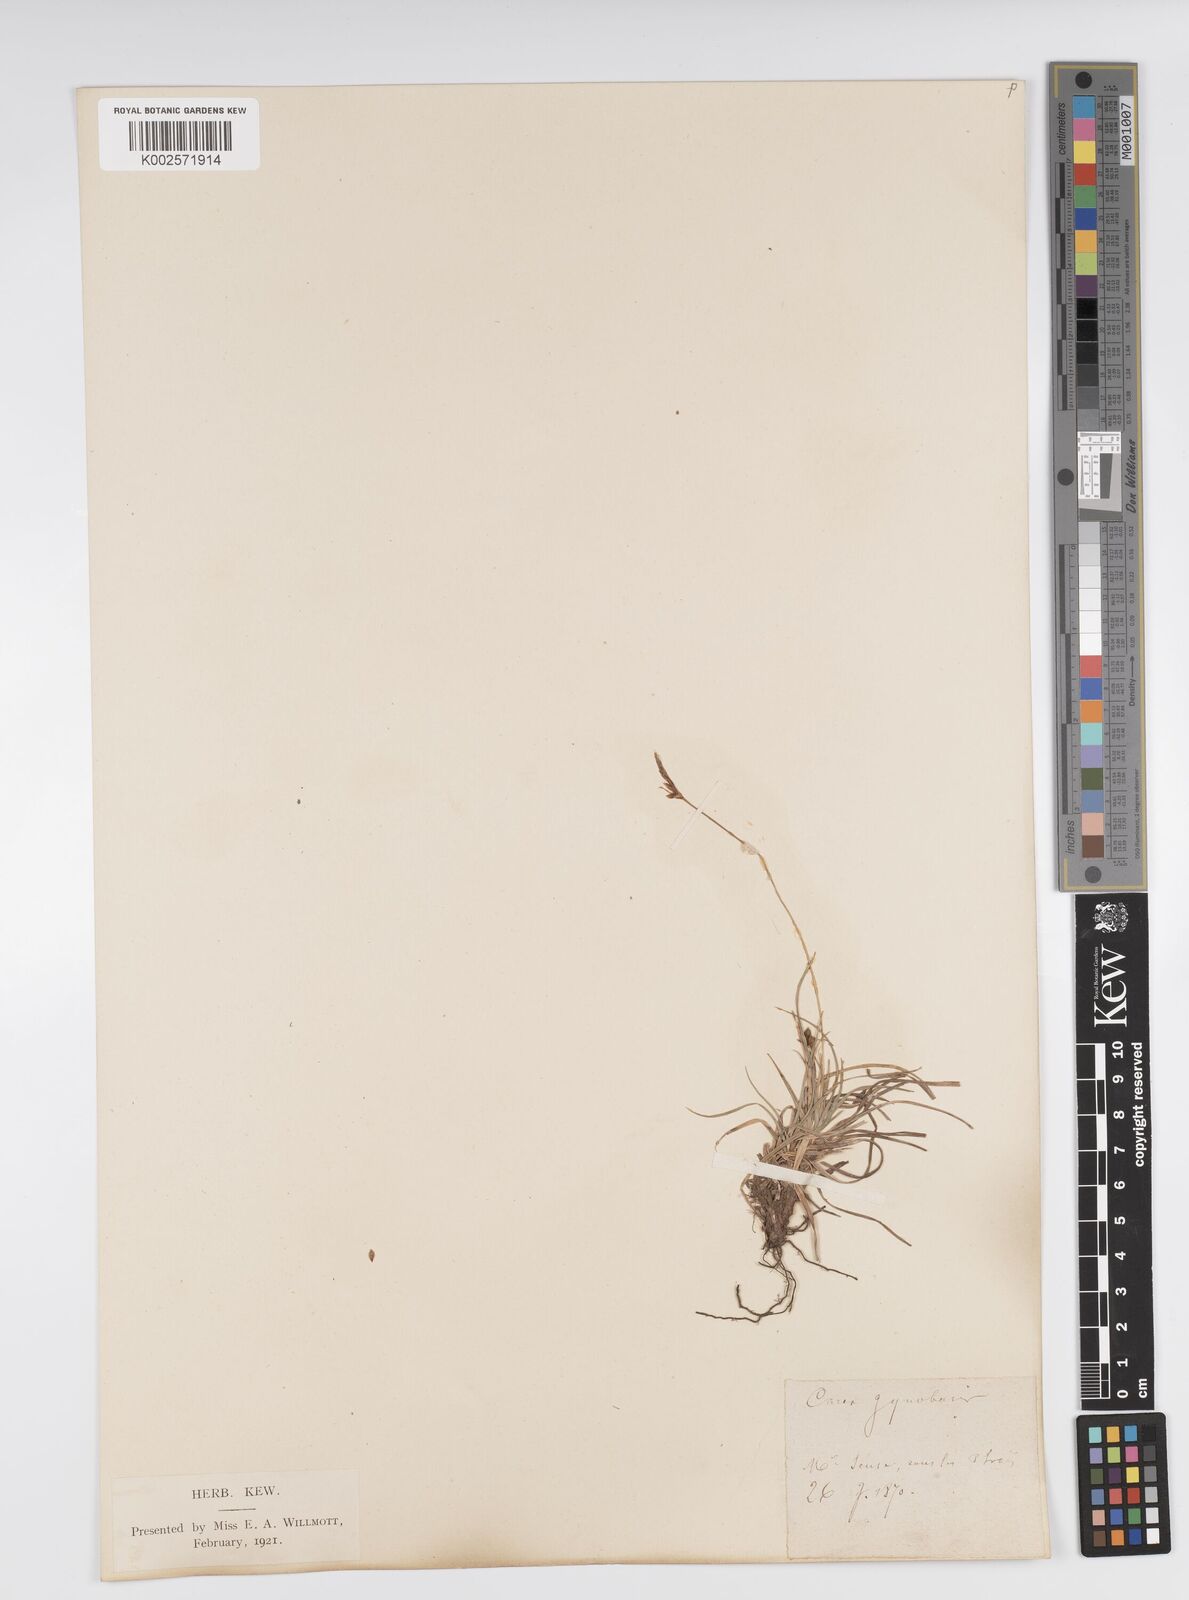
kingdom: Plantae
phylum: Tracheophyta
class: Liliopsida
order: Poales
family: Cyperaceae
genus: Carex
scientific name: Carex halleriana
